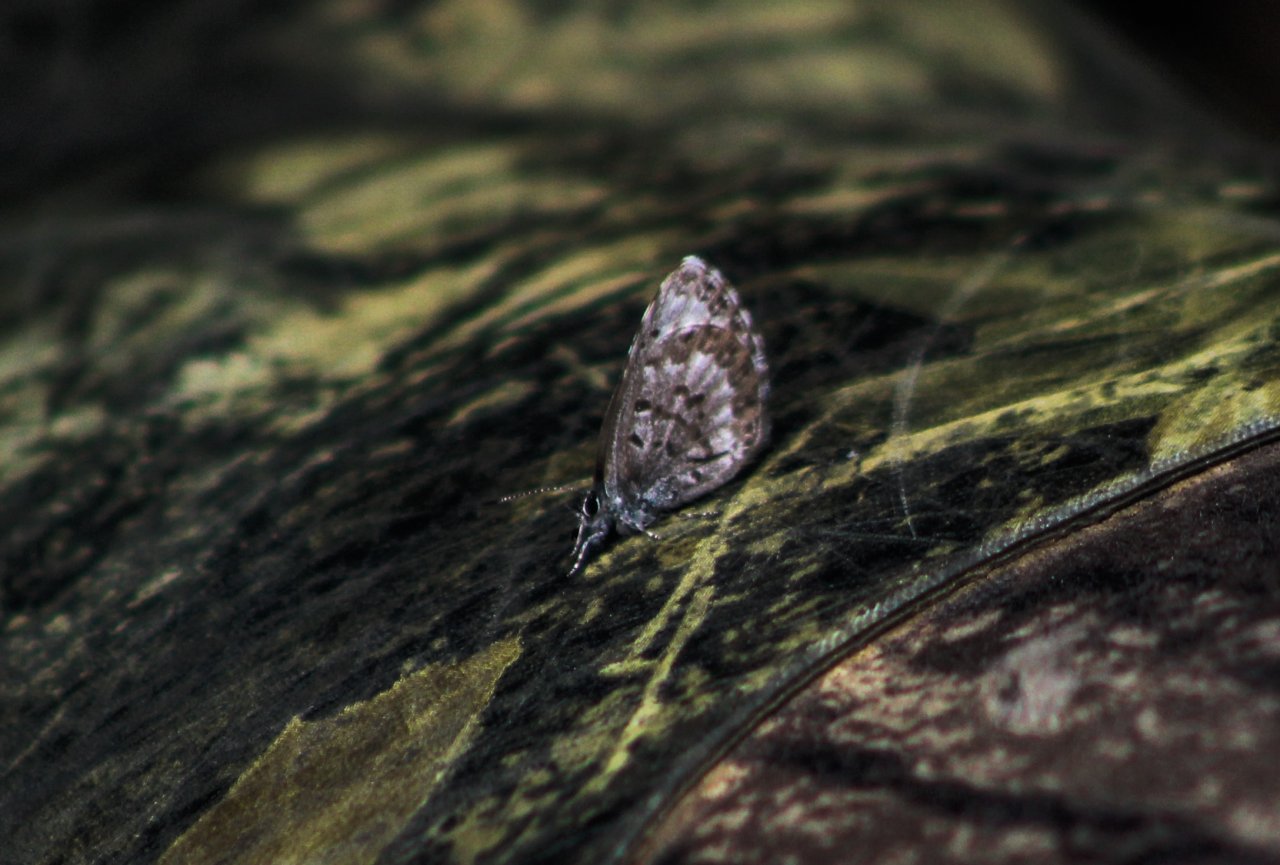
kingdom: Animalia
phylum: Arthropoda
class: Insecta
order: Lepidoptera
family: Lycaenidae
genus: Celastrina
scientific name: Celastrina lucia
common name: Northern Spring Azure
